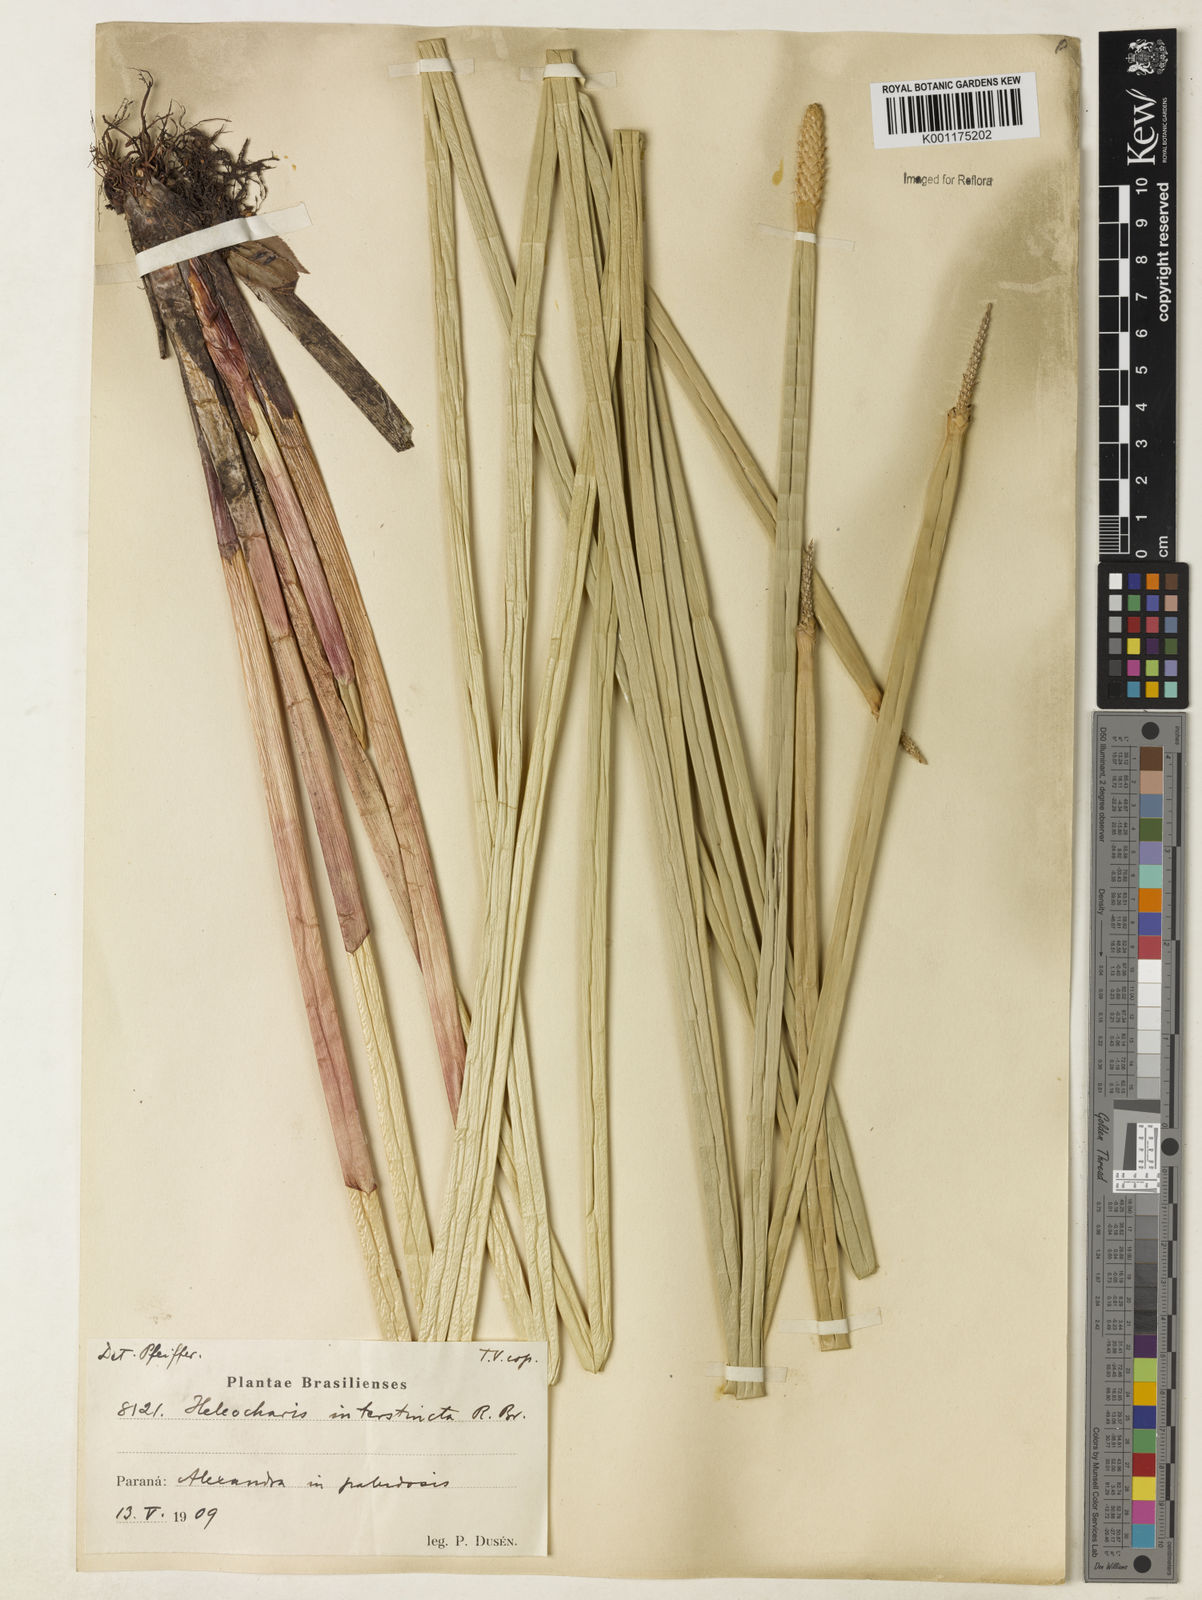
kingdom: Plantae
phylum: Tracheophyta
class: Liliopsida
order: Poales
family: Cyperaceae
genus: Eleocharis
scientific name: Eleocharis interstincta
